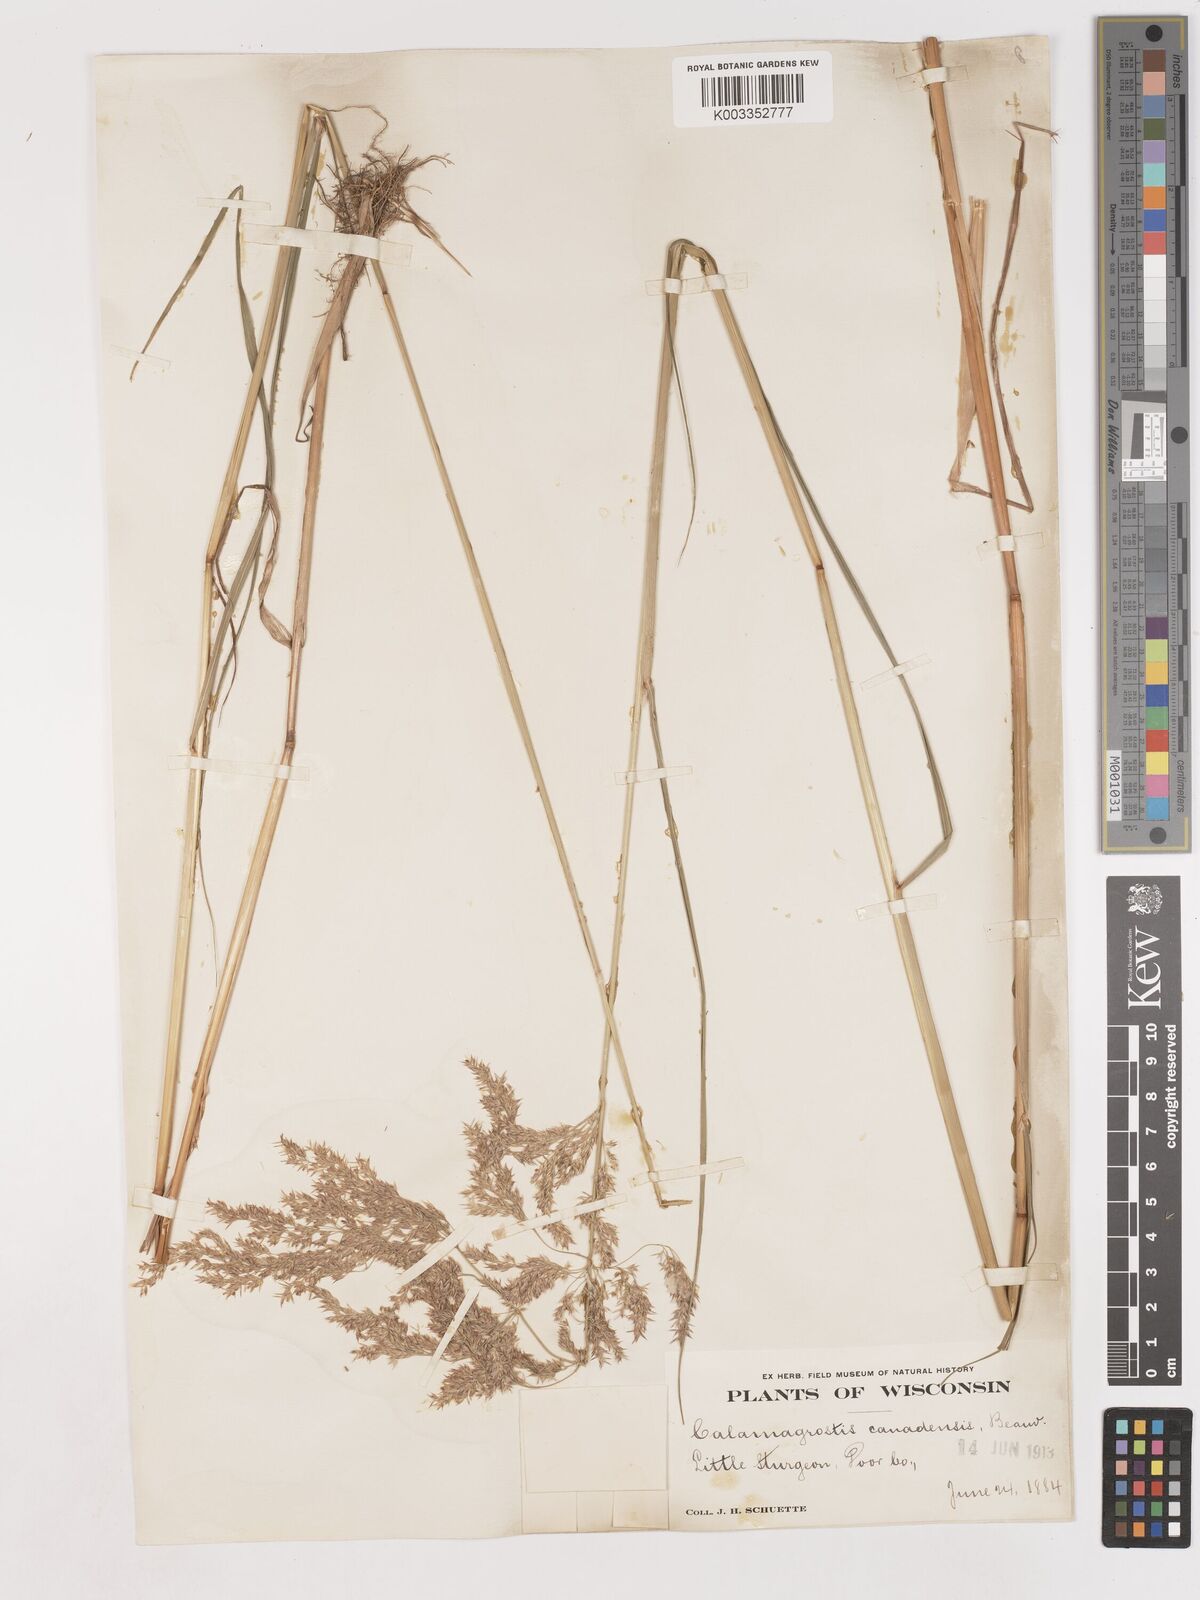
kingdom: Plantae
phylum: Tracheophyta
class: Liliopsida
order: Poales
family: Poaceae
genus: Calamagrostis
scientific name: Calamagrostis canadensis
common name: Canada bluejoint
